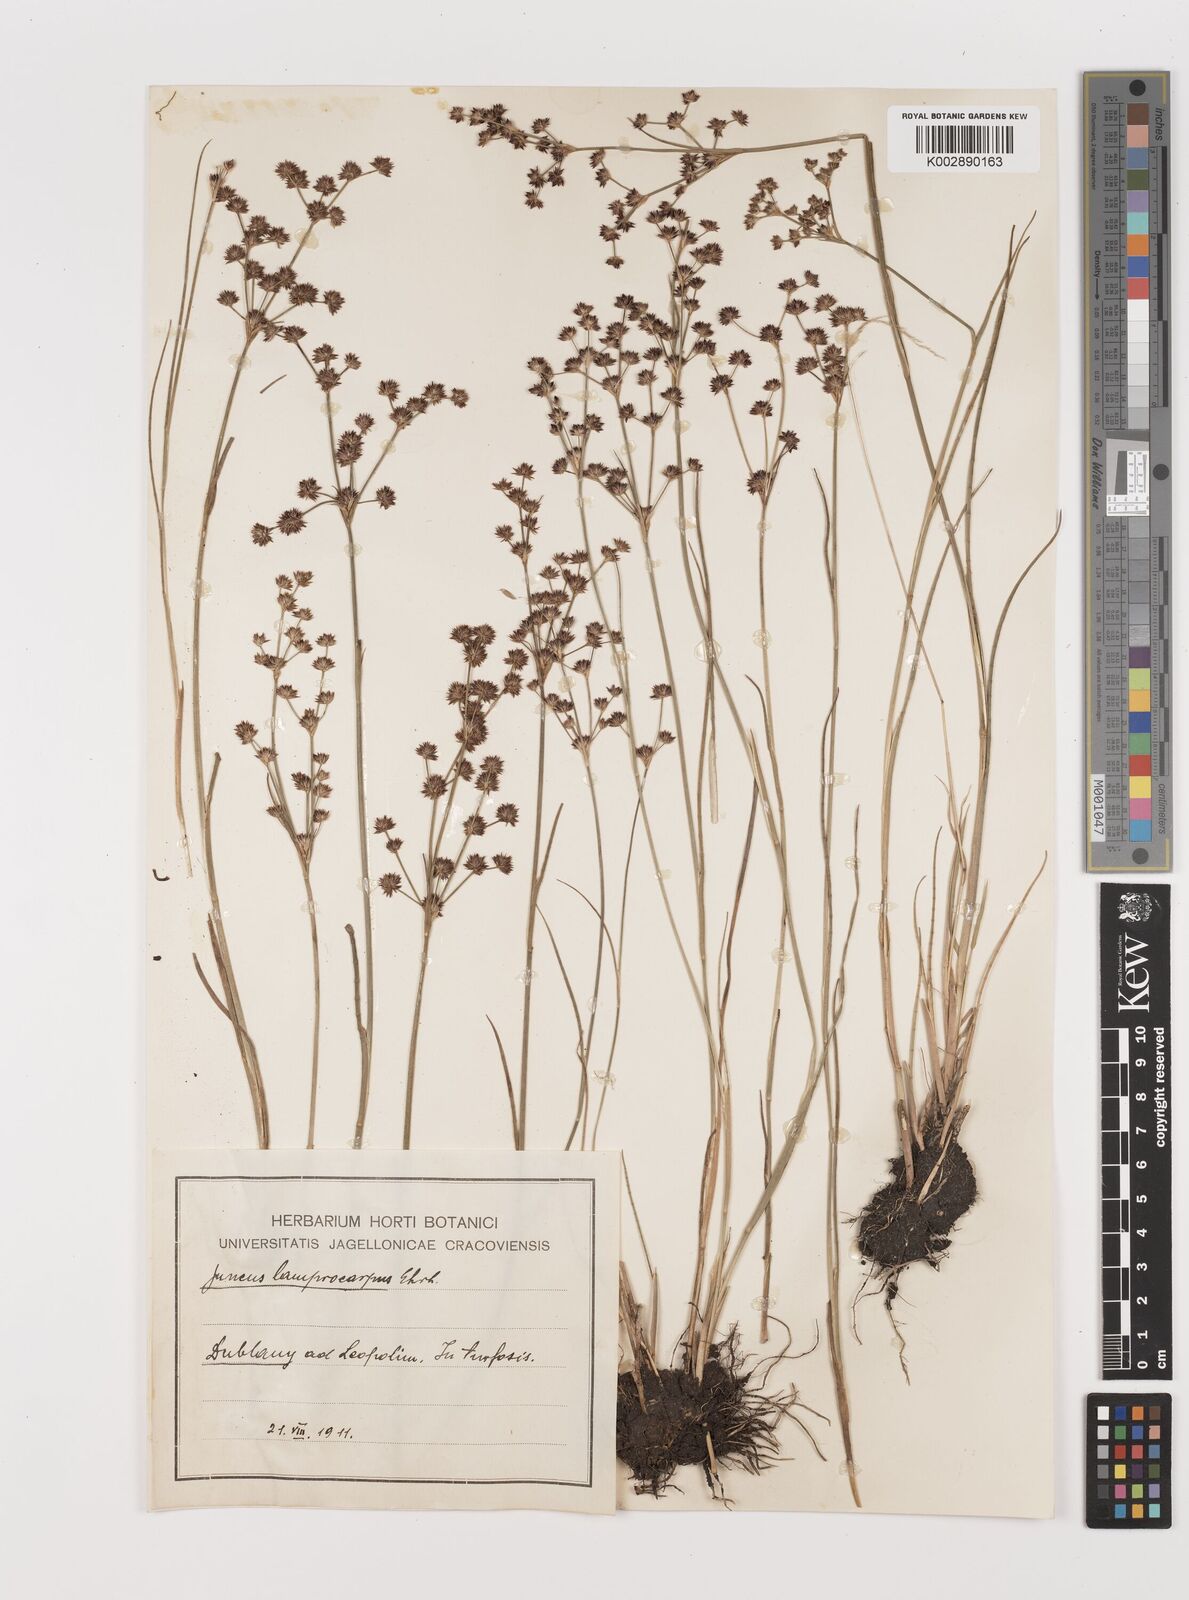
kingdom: Plantae
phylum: Tracheophyta
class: Liliopsida
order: Poales
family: Juncaceae
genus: Juncus
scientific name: Juncus articulatus
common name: Jointed rush
